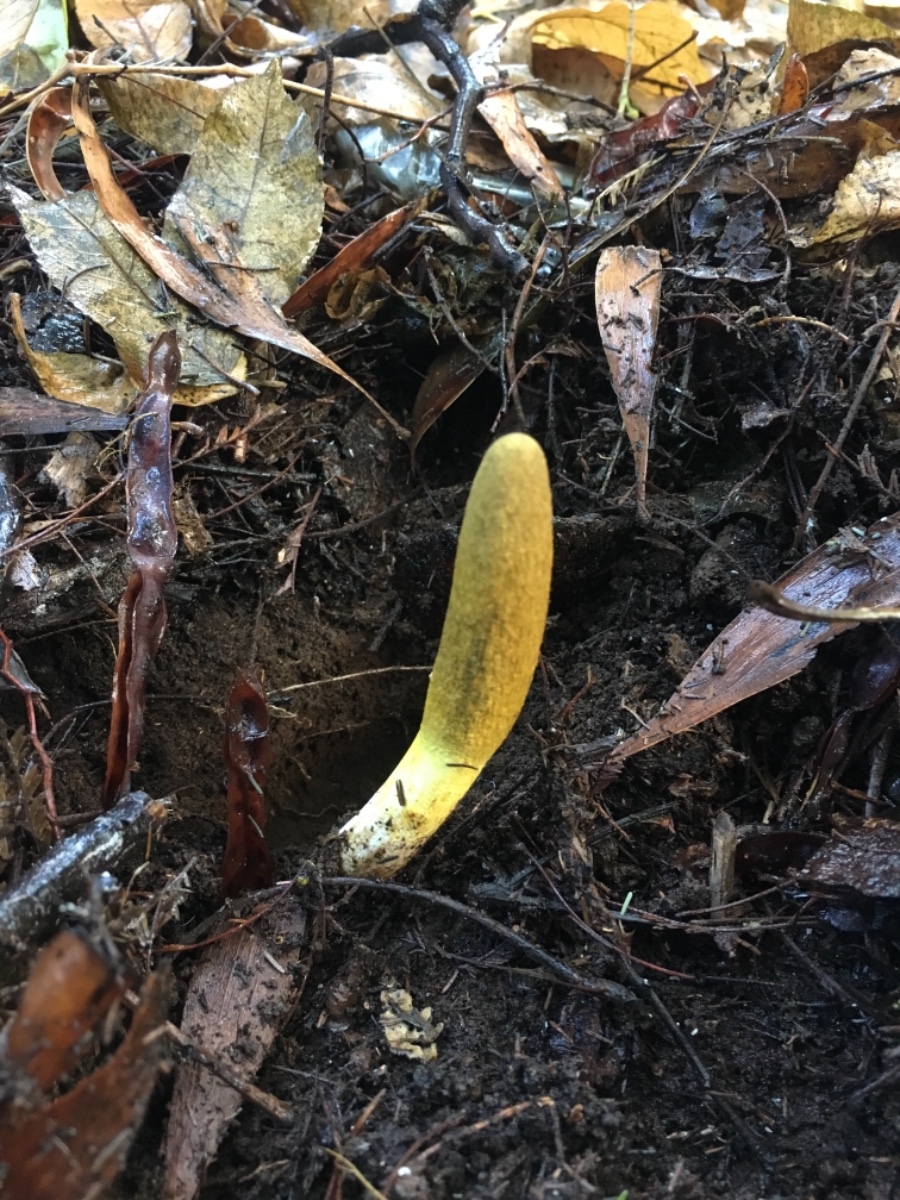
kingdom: Fungi
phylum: Ascomycota
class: Sordariomycetes
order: Hypocreales
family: Clavicipitaceae
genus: Drechmeria
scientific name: Drechmeria gunnii
